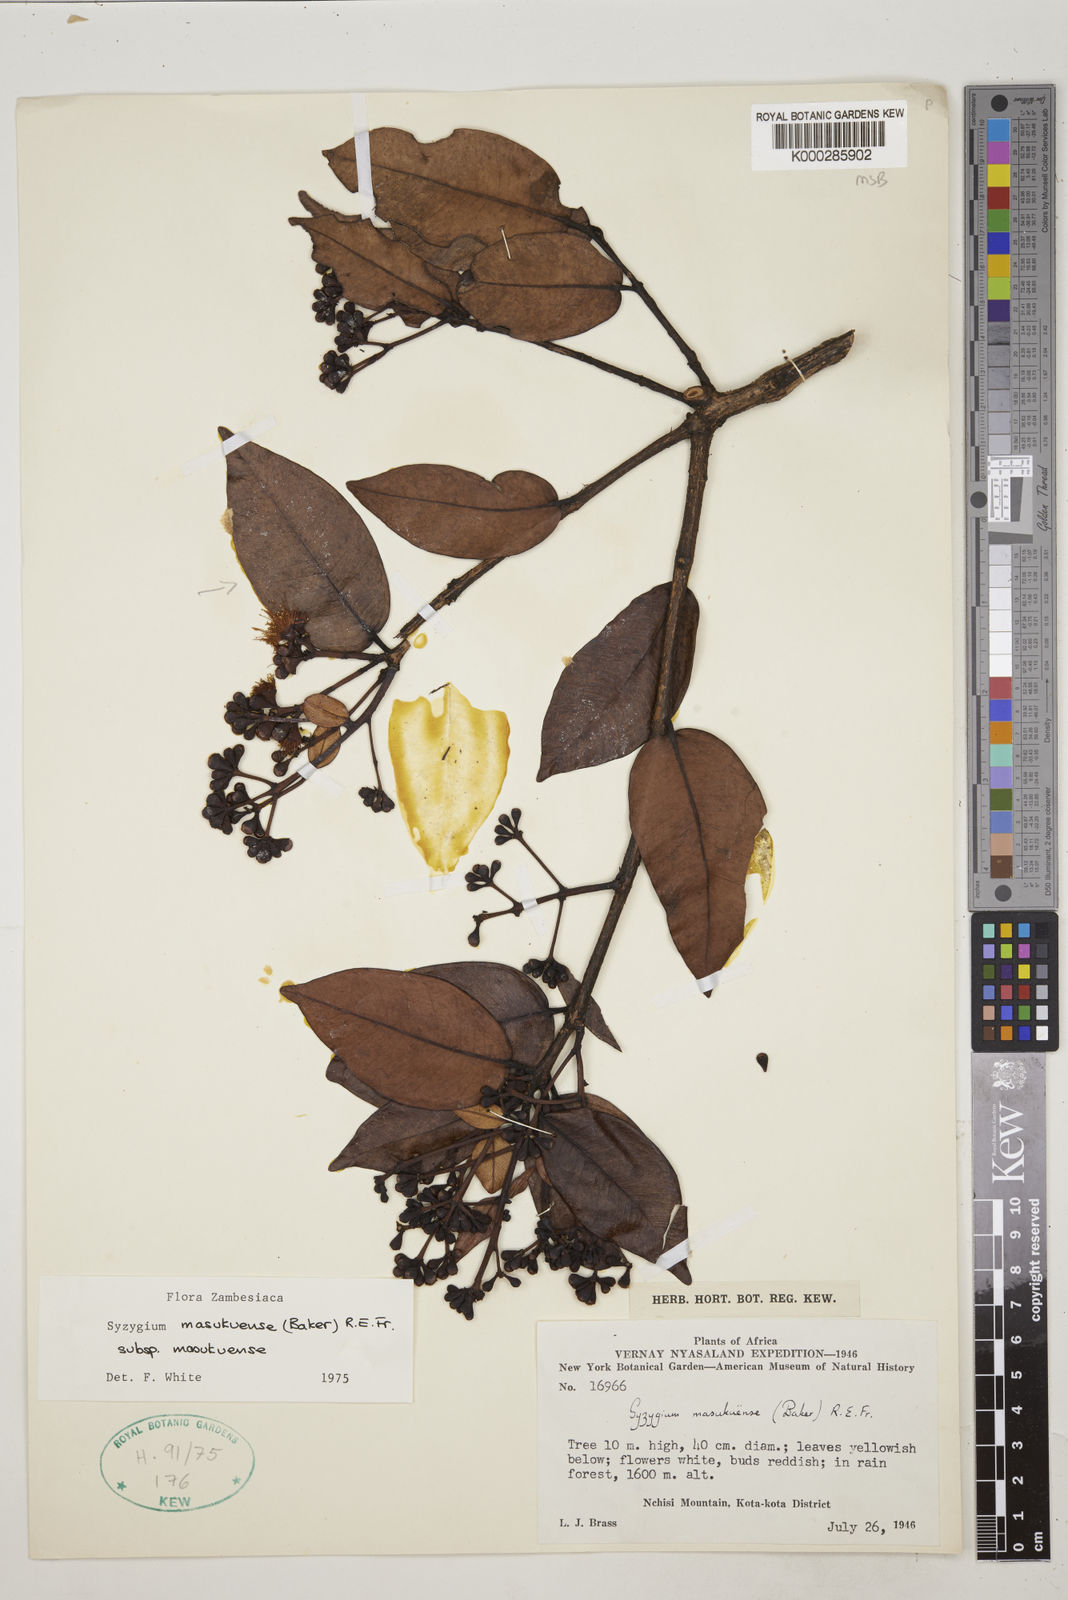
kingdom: Plantae
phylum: Tracheophyta
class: Magnoliopsida
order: Myrtales
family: Myrtaceae
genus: Syzygium
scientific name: Syzygium masukuense
